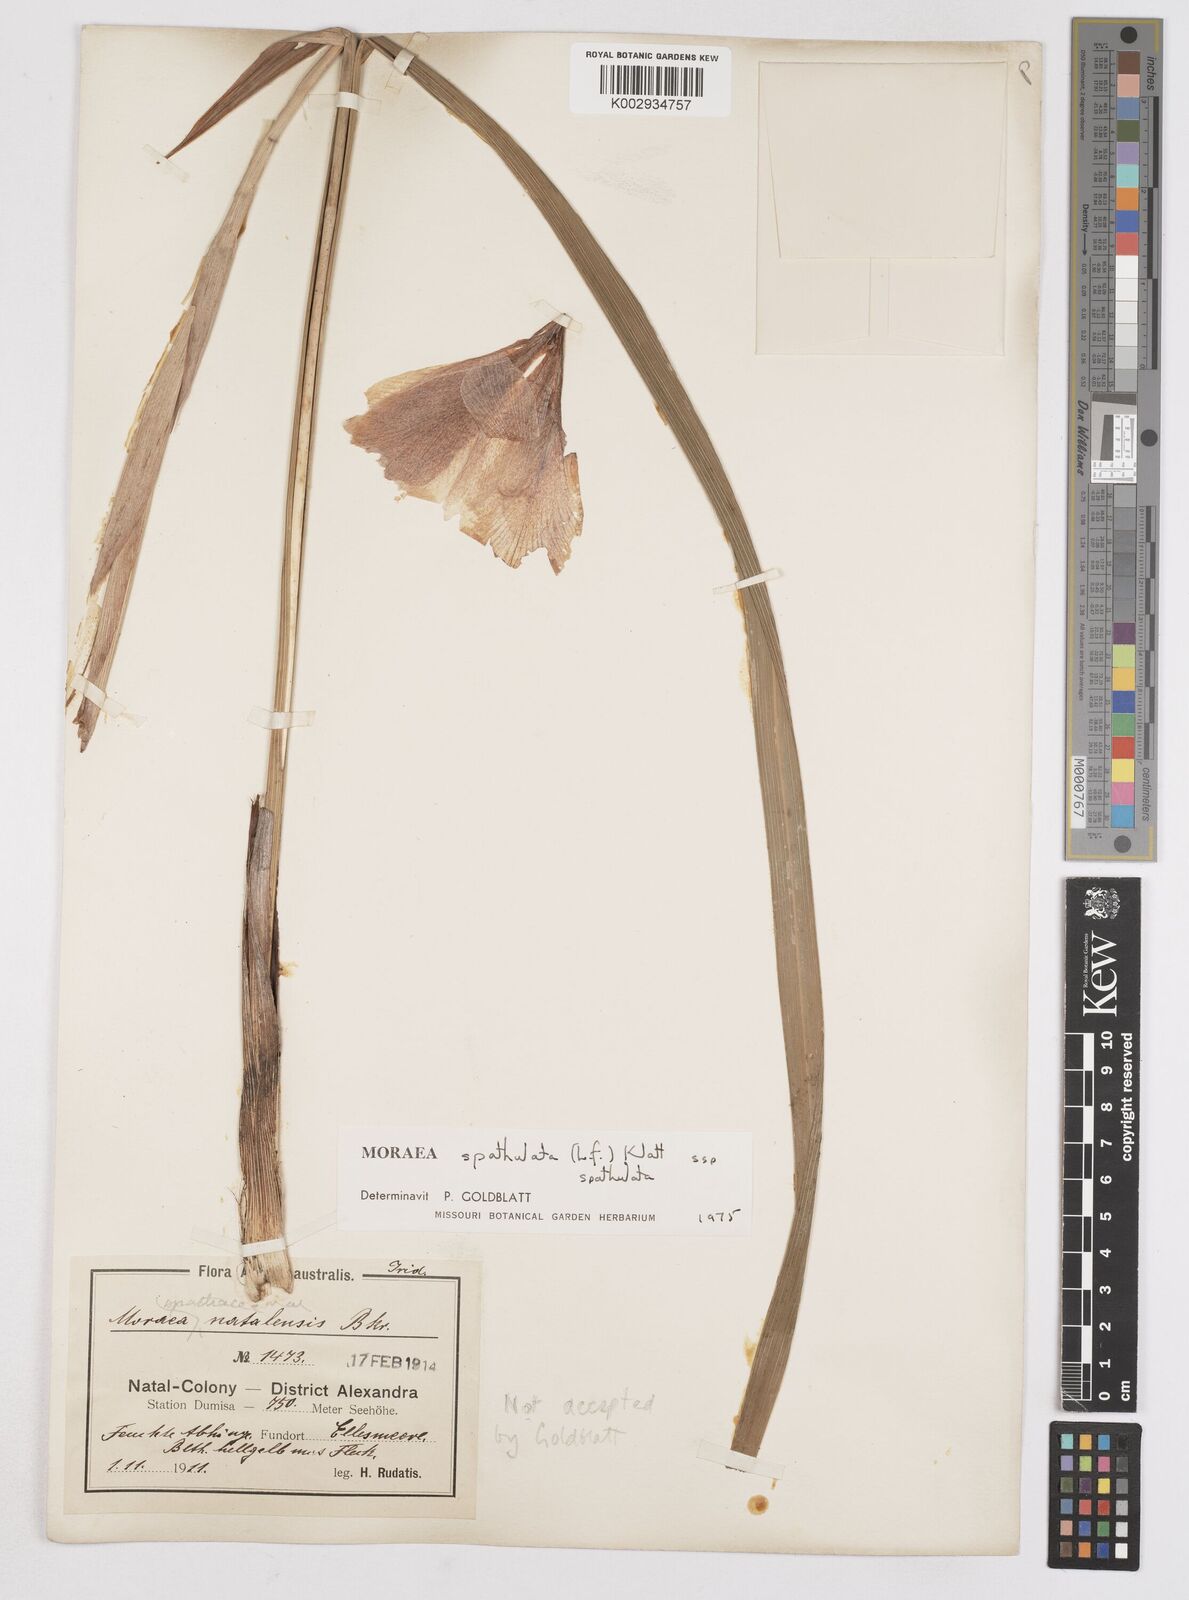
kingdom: Plantae
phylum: Tracheophyta
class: Liliopsida
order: Asparagales
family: Iridaceae
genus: Moraea
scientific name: Moraea spathulata
